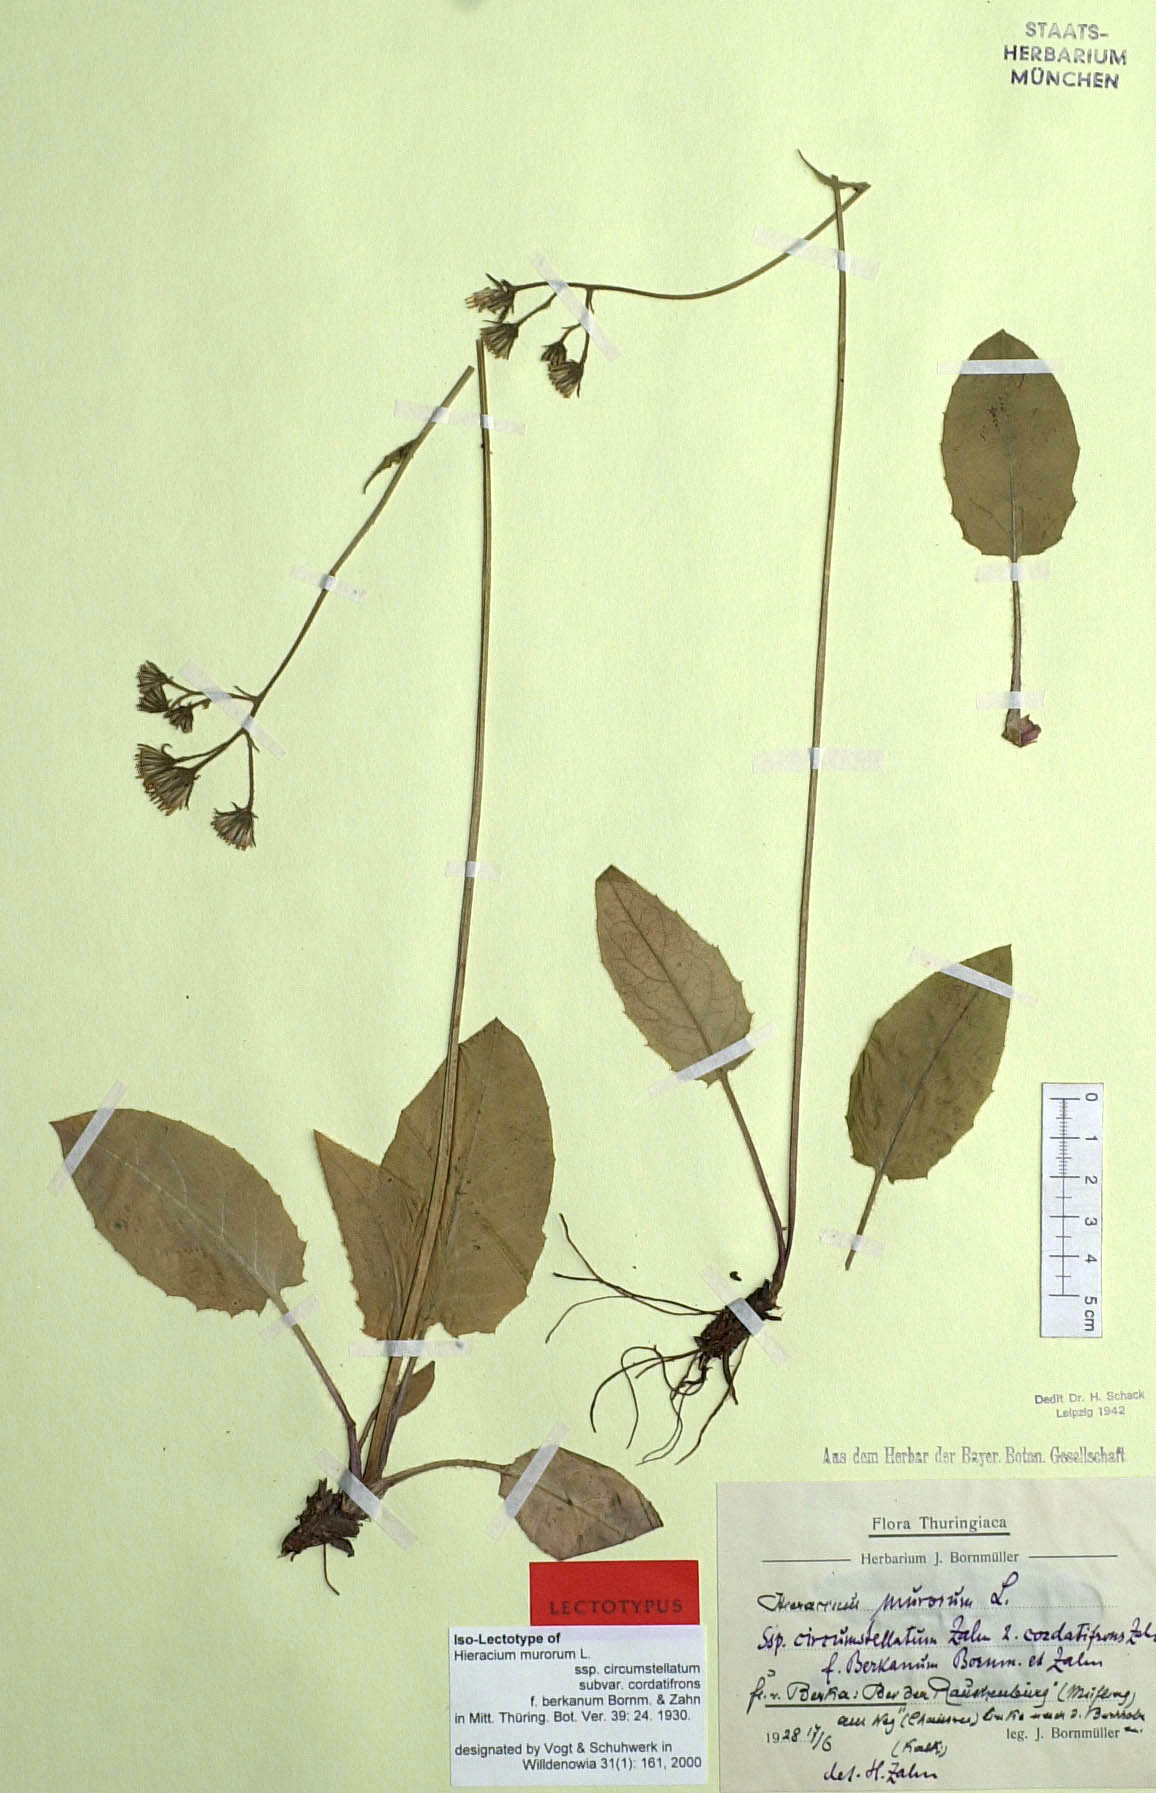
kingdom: Plantae
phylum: Tracheophyta
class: Magnoliopsida
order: Asterales
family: Asteraceae
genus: Hieracium
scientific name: Hieracium murorum
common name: Wall hawkweed
